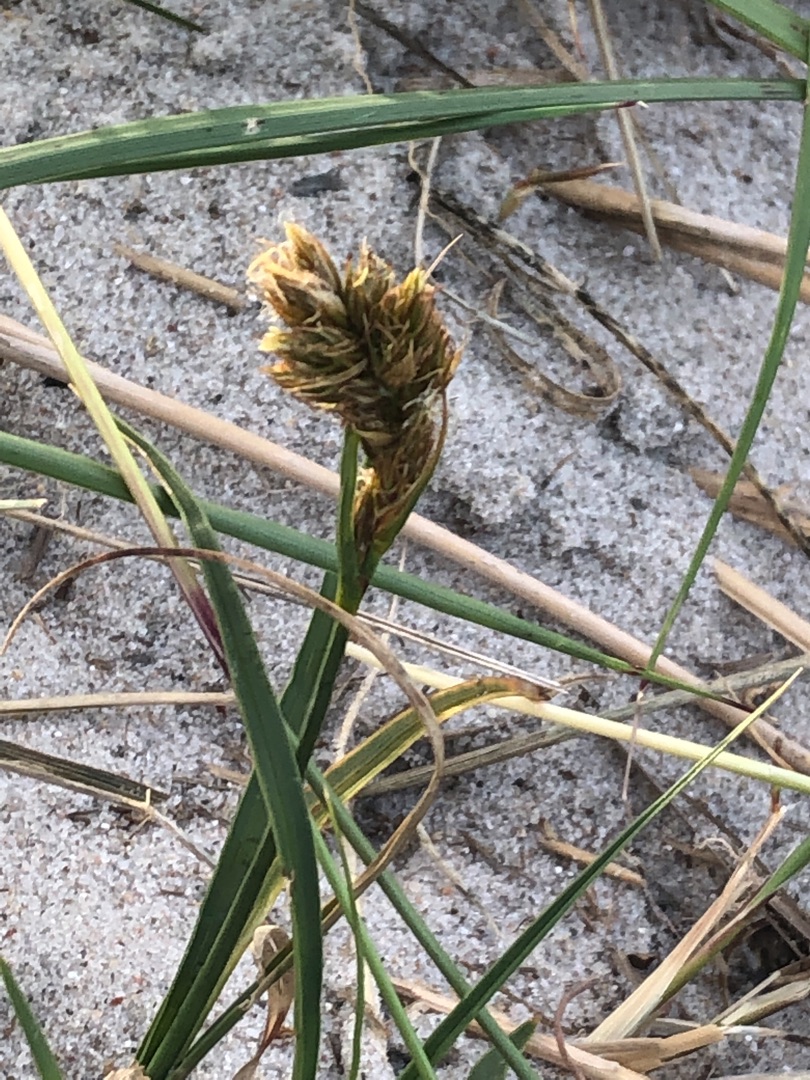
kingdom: Plantae
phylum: Tracheophyta
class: Liliopsida
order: Poales
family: Cyperaceae
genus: Carex
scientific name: Carex arenaria
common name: Sand-star
